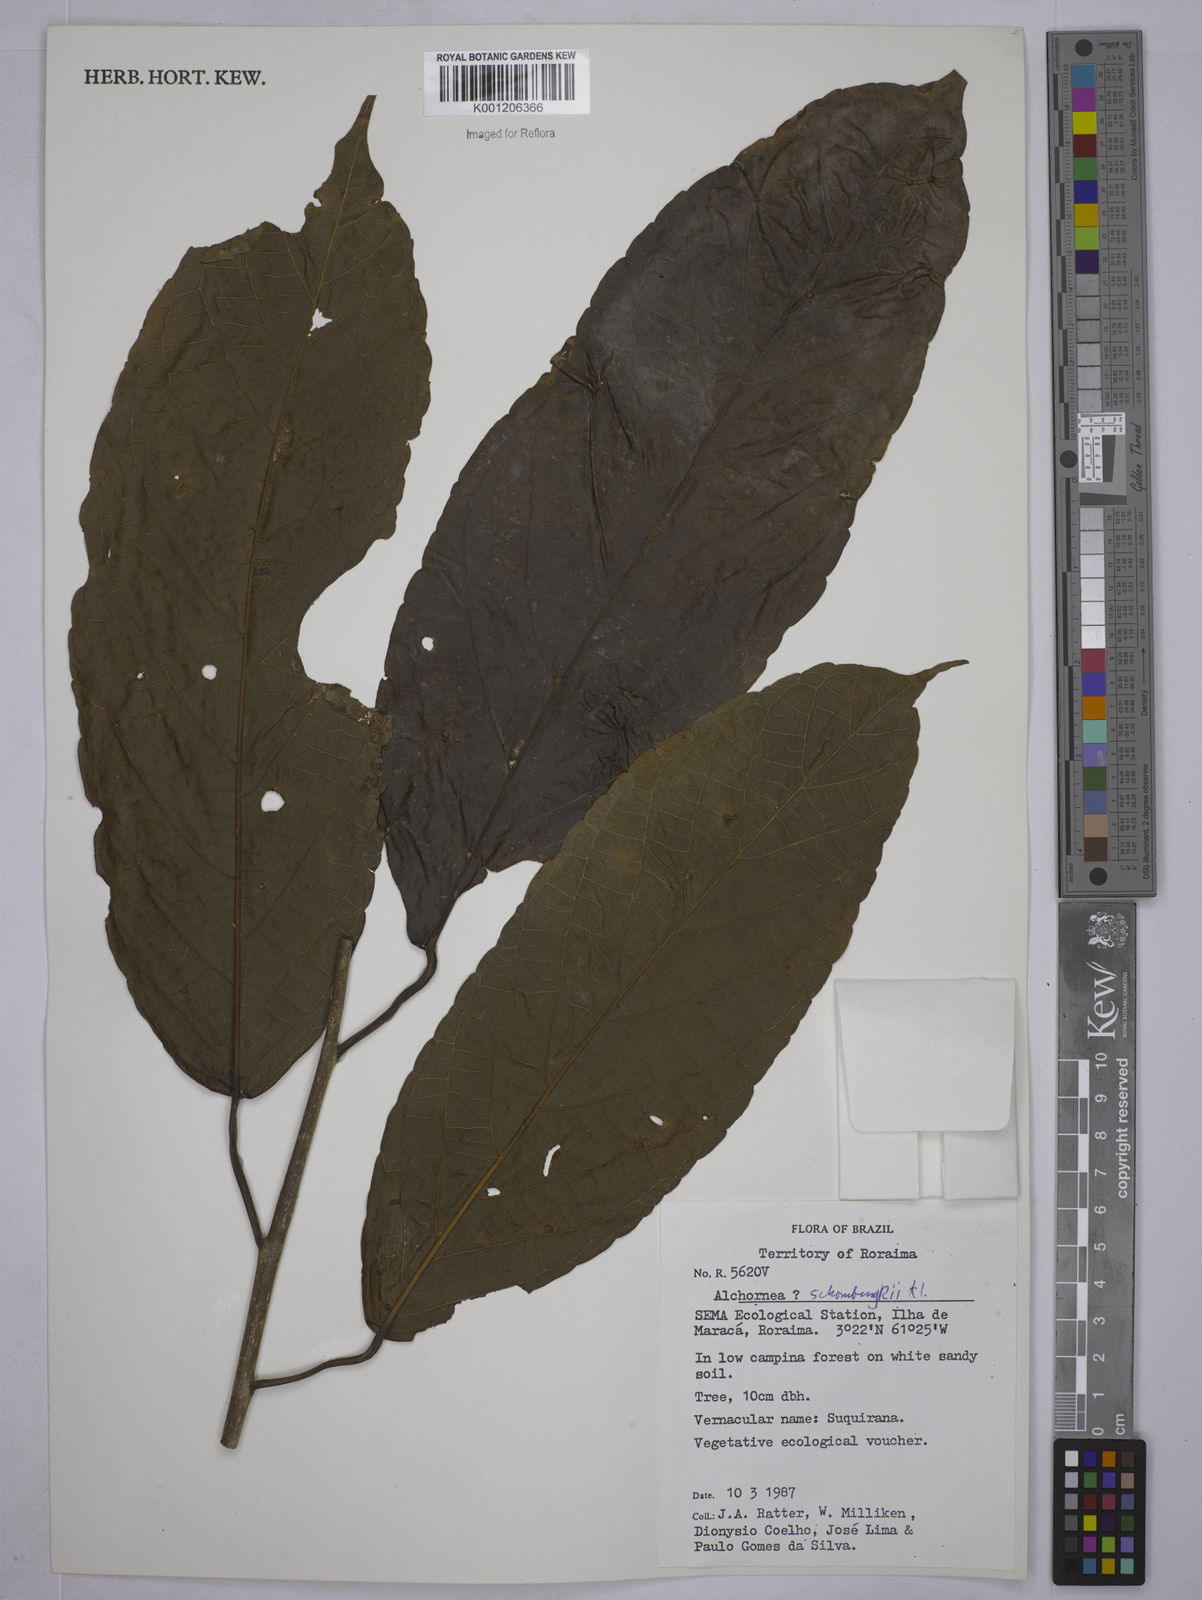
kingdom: Plantae
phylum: Tracheophyta
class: Magnoliopsida
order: Malpighiales
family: Euphorbiaceae
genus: Alchornea
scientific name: Alchornea discolor
